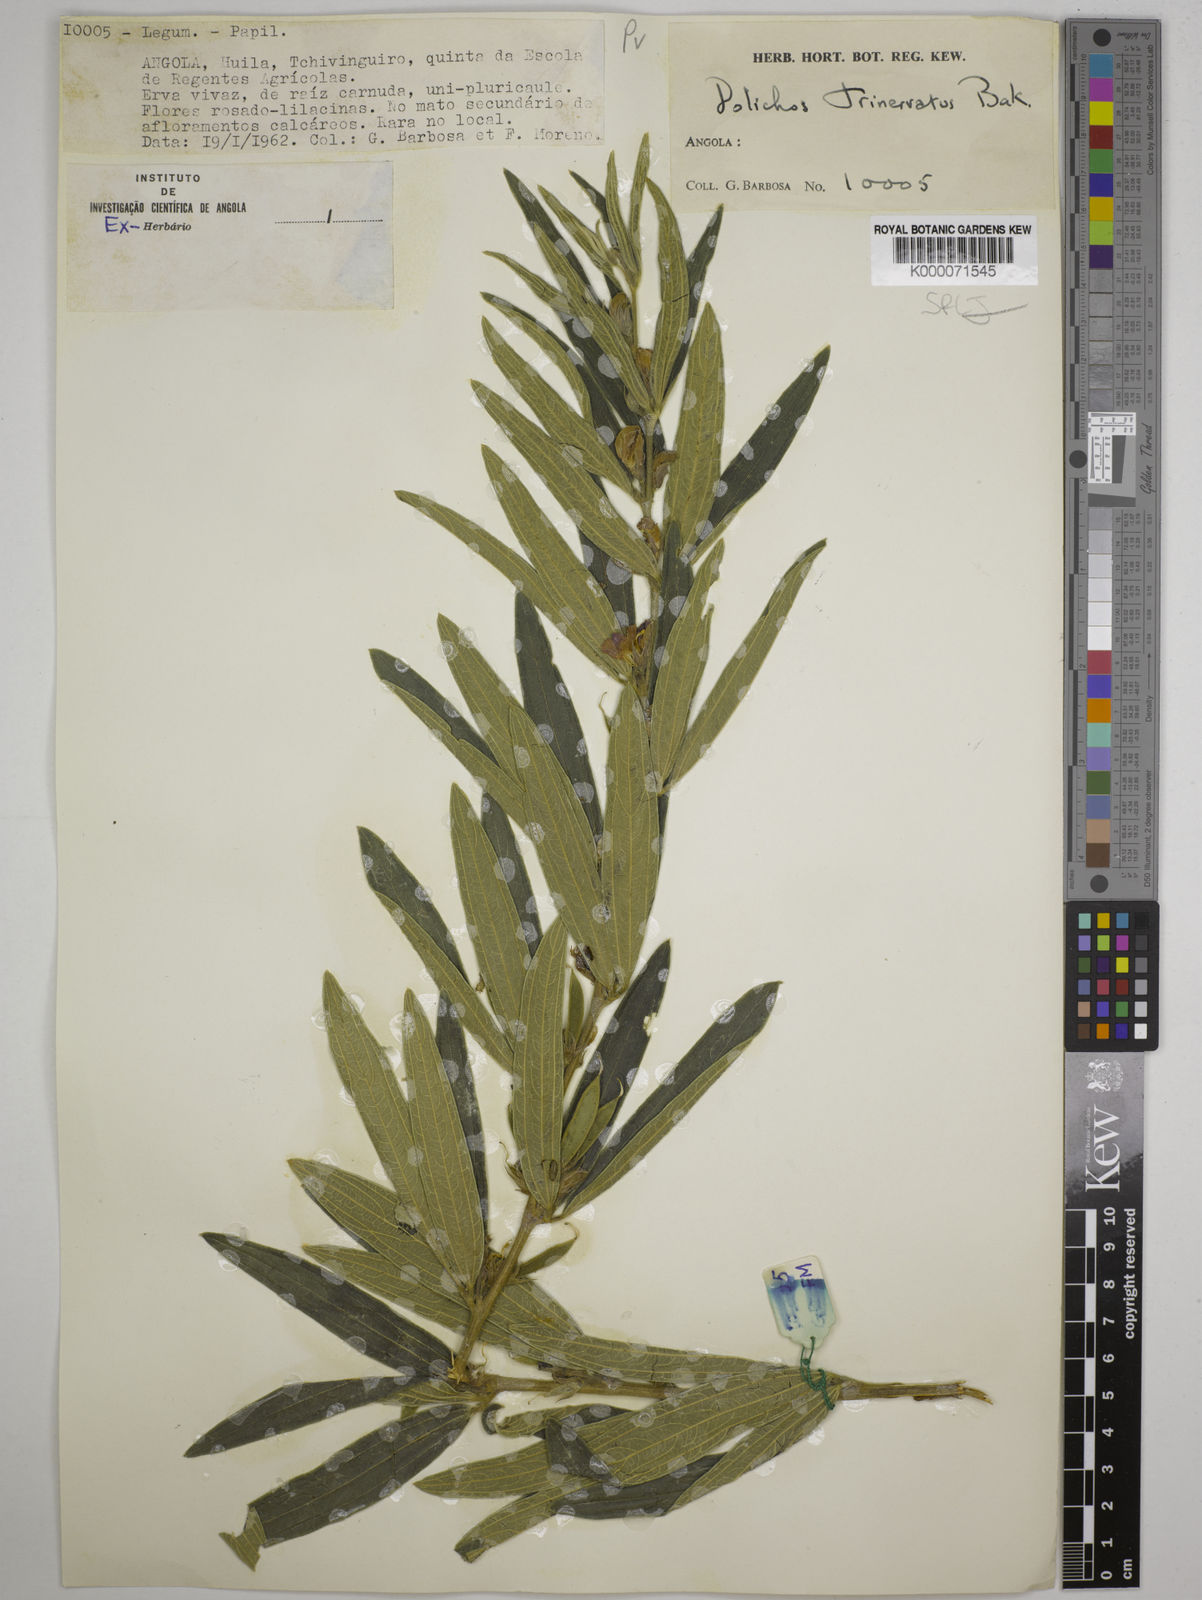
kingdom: Plantae
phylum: Tracheophyta
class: Magnoliopsida
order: Fabales
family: Fabaceae
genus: Dolichos
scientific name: Dolichos trinervatus
